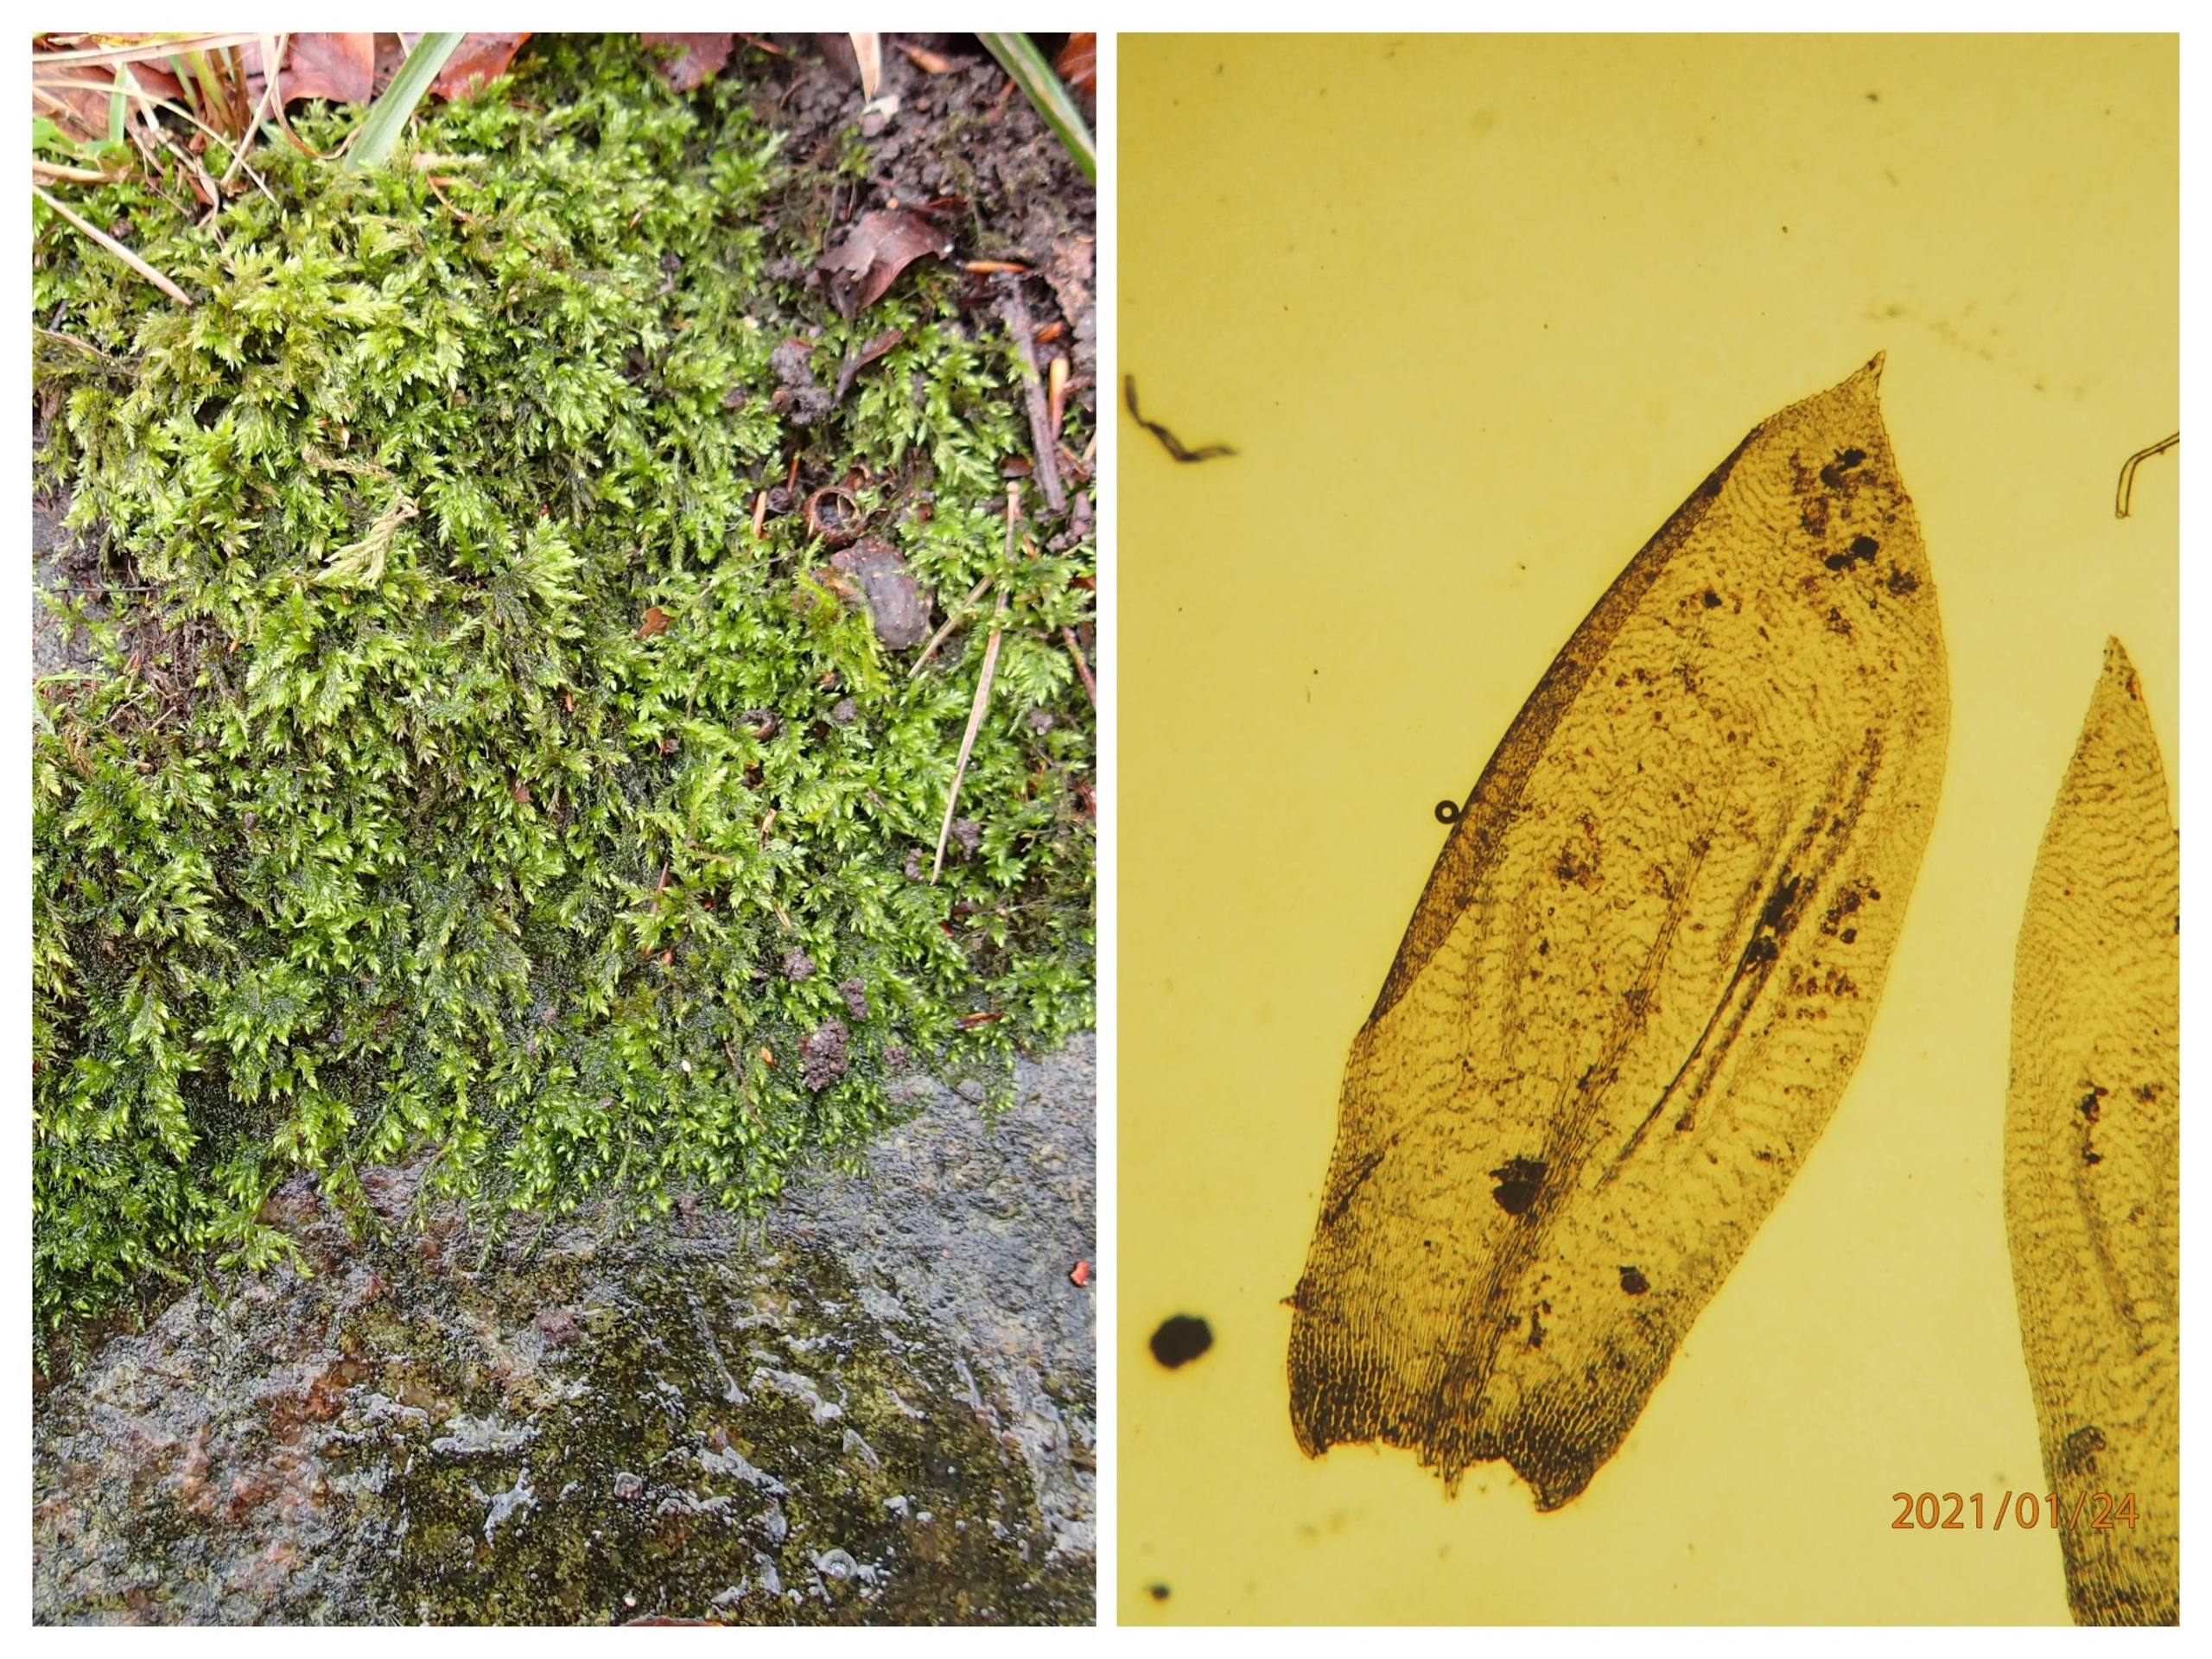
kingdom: Plantae
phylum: Bryophyta
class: Bryopsida
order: Hypnales
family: Lembophyllaceae
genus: Isothecium
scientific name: Isothecium alopecuroides
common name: Stor stammemos
